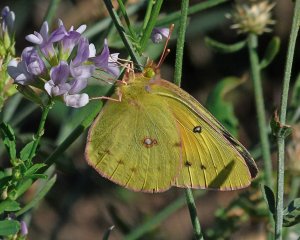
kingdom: Animalia
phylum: Arthropoda
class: Insecta
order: Lepidoptera
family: Pieridae
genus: Colias
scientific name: Colias eurytheme
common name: Orange Sulphur
